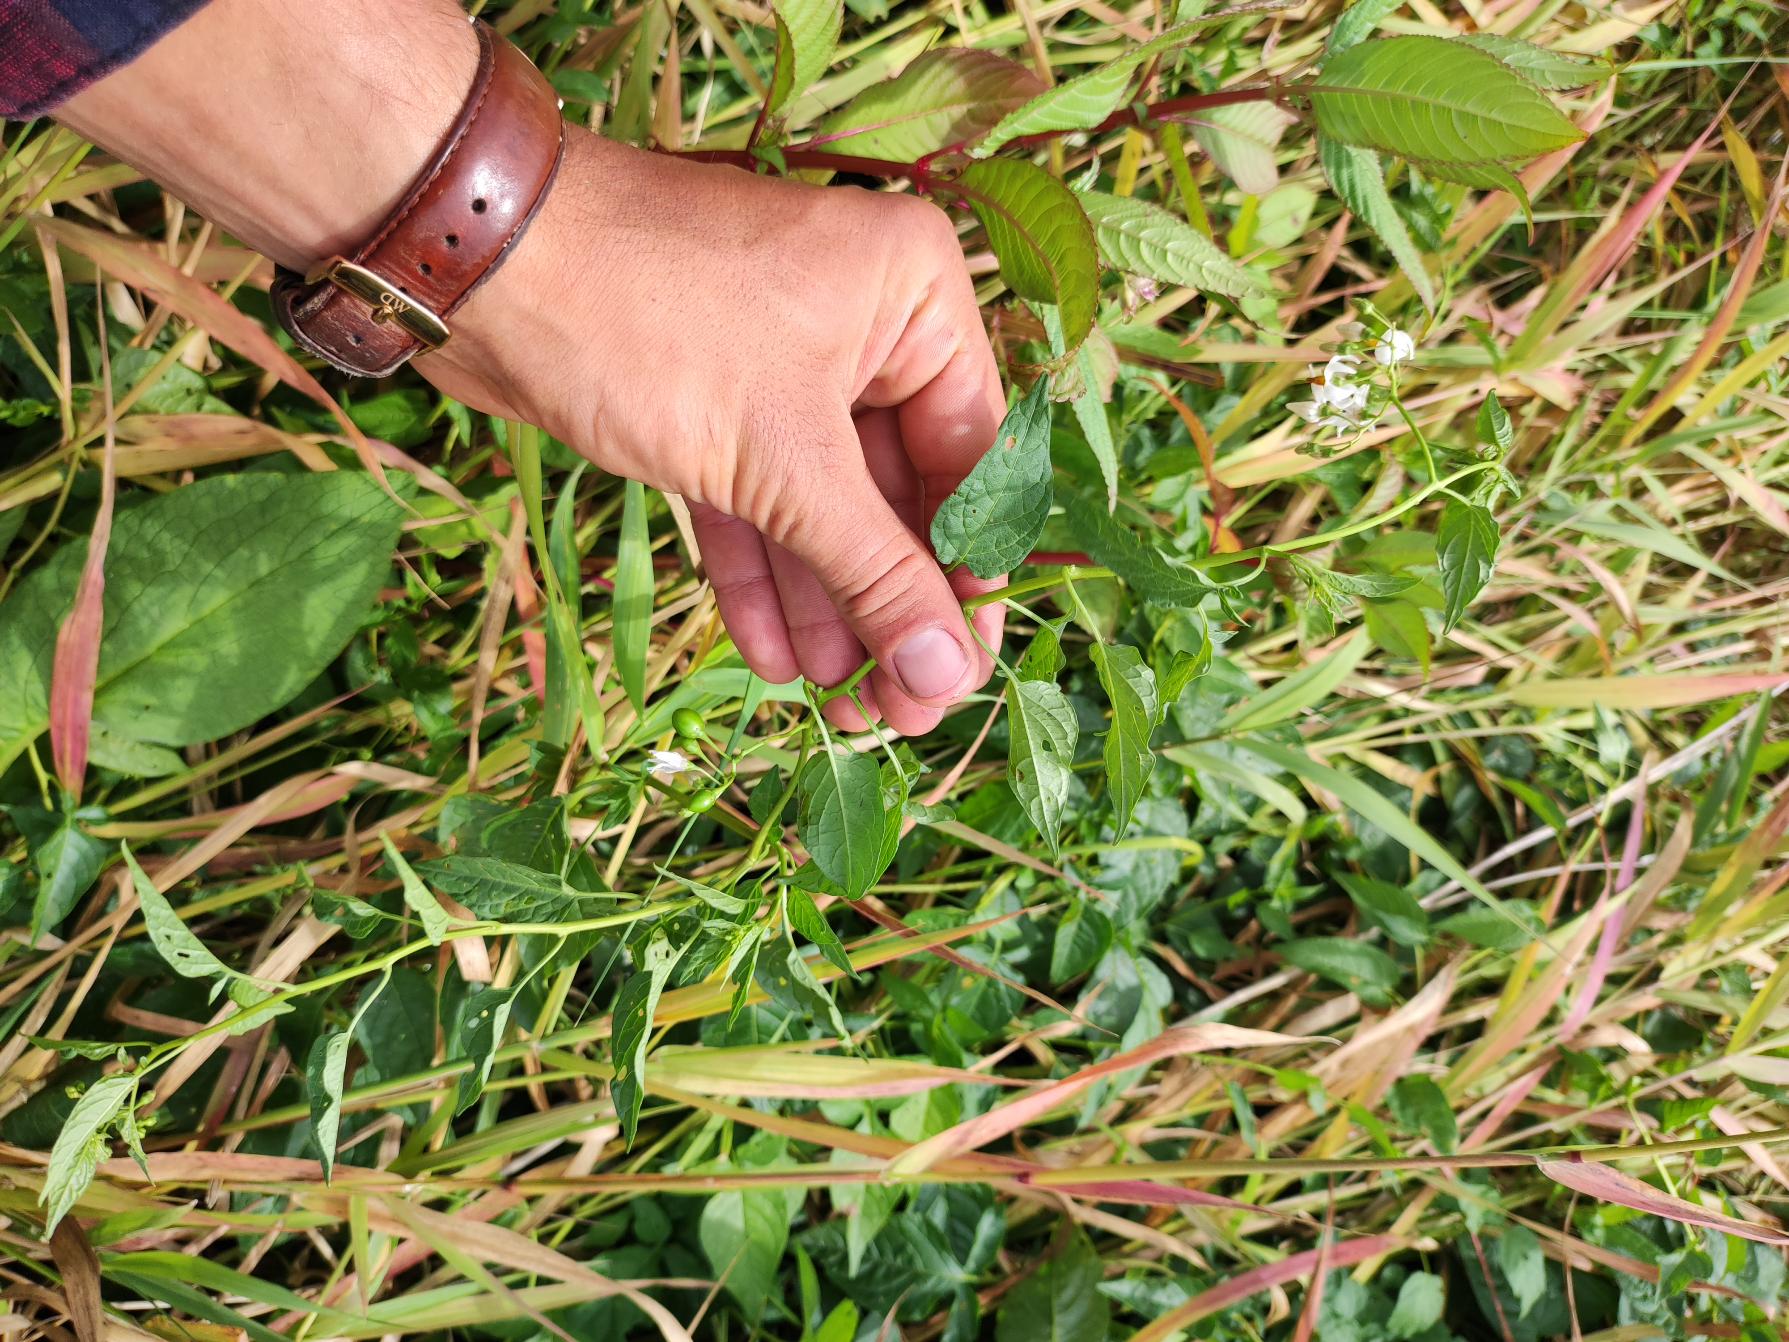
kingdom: Plantae
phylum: Tracheophyta
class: Magnoliopsida
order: Solanales
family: Solanaceae
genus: Solanum
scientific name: Solanum nigrum
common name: Sort natskygge
